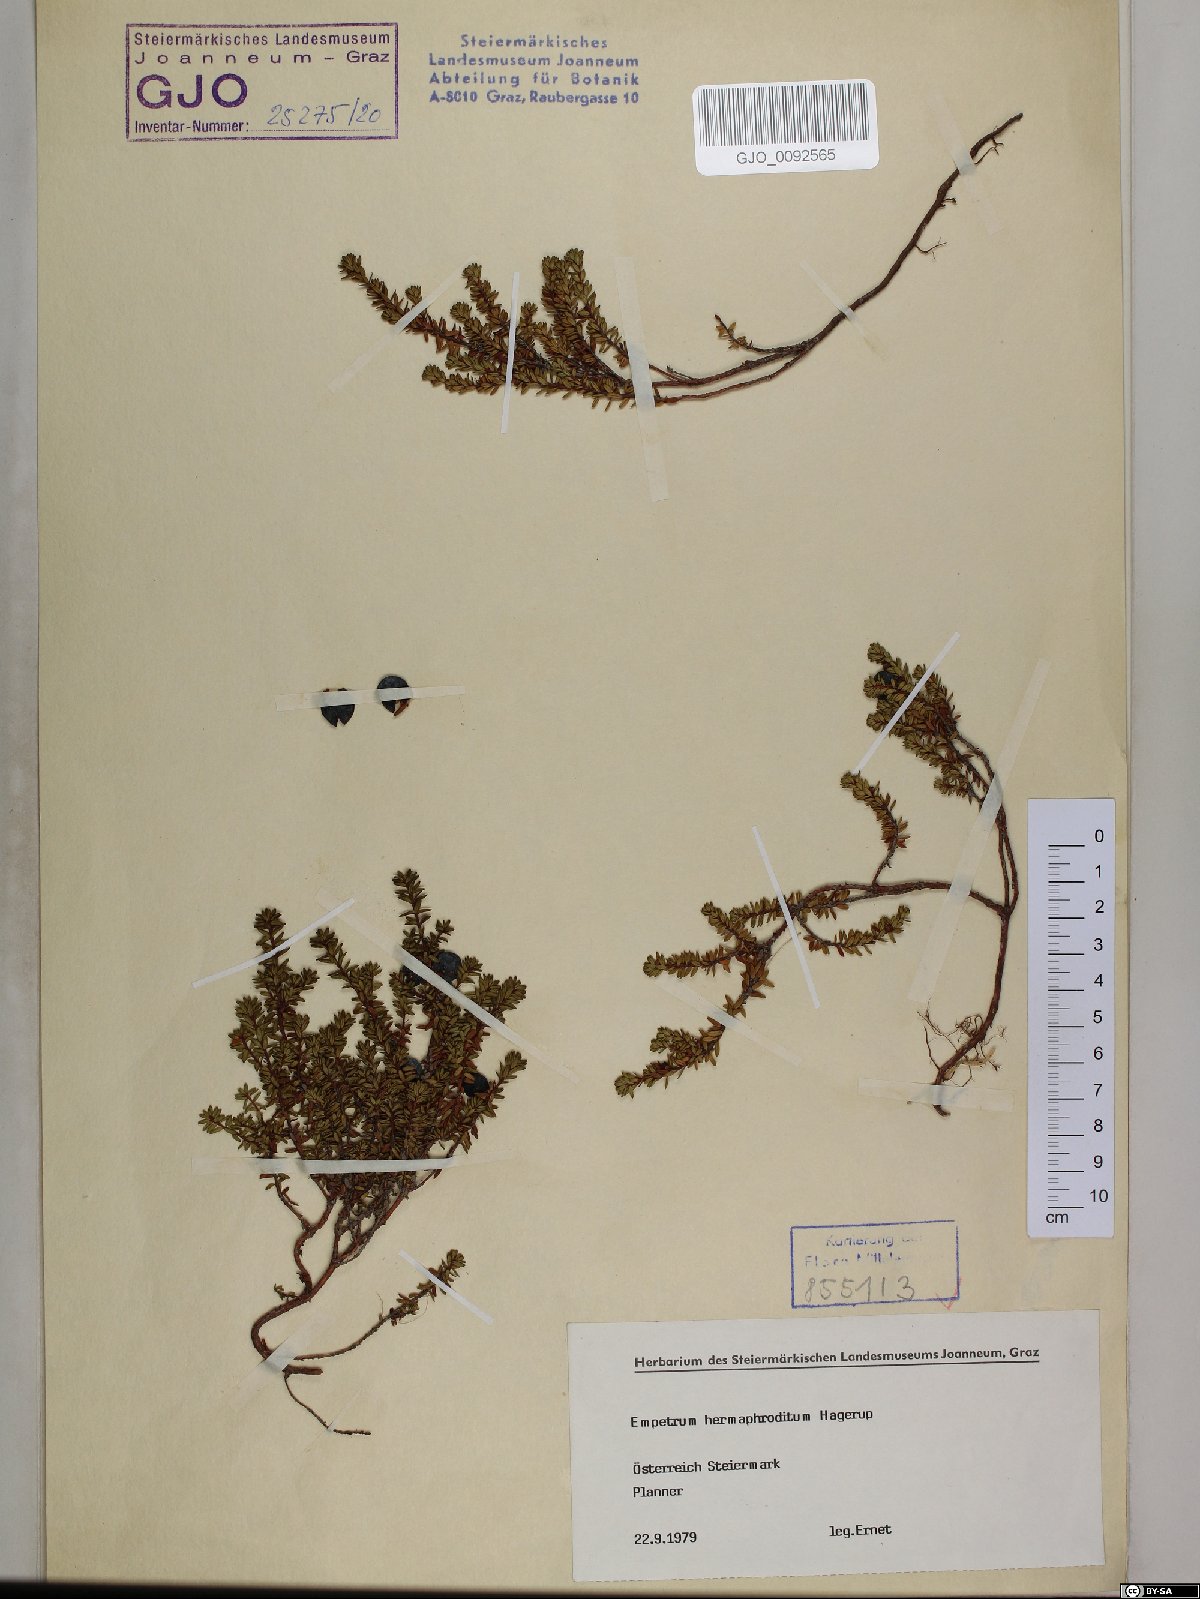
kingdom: Plantae
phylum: Tracheophyta
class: Magnoliopsida
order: Ericales
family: Ericaceae
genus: Empetrum
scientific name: Empetrum hermaphroditum
